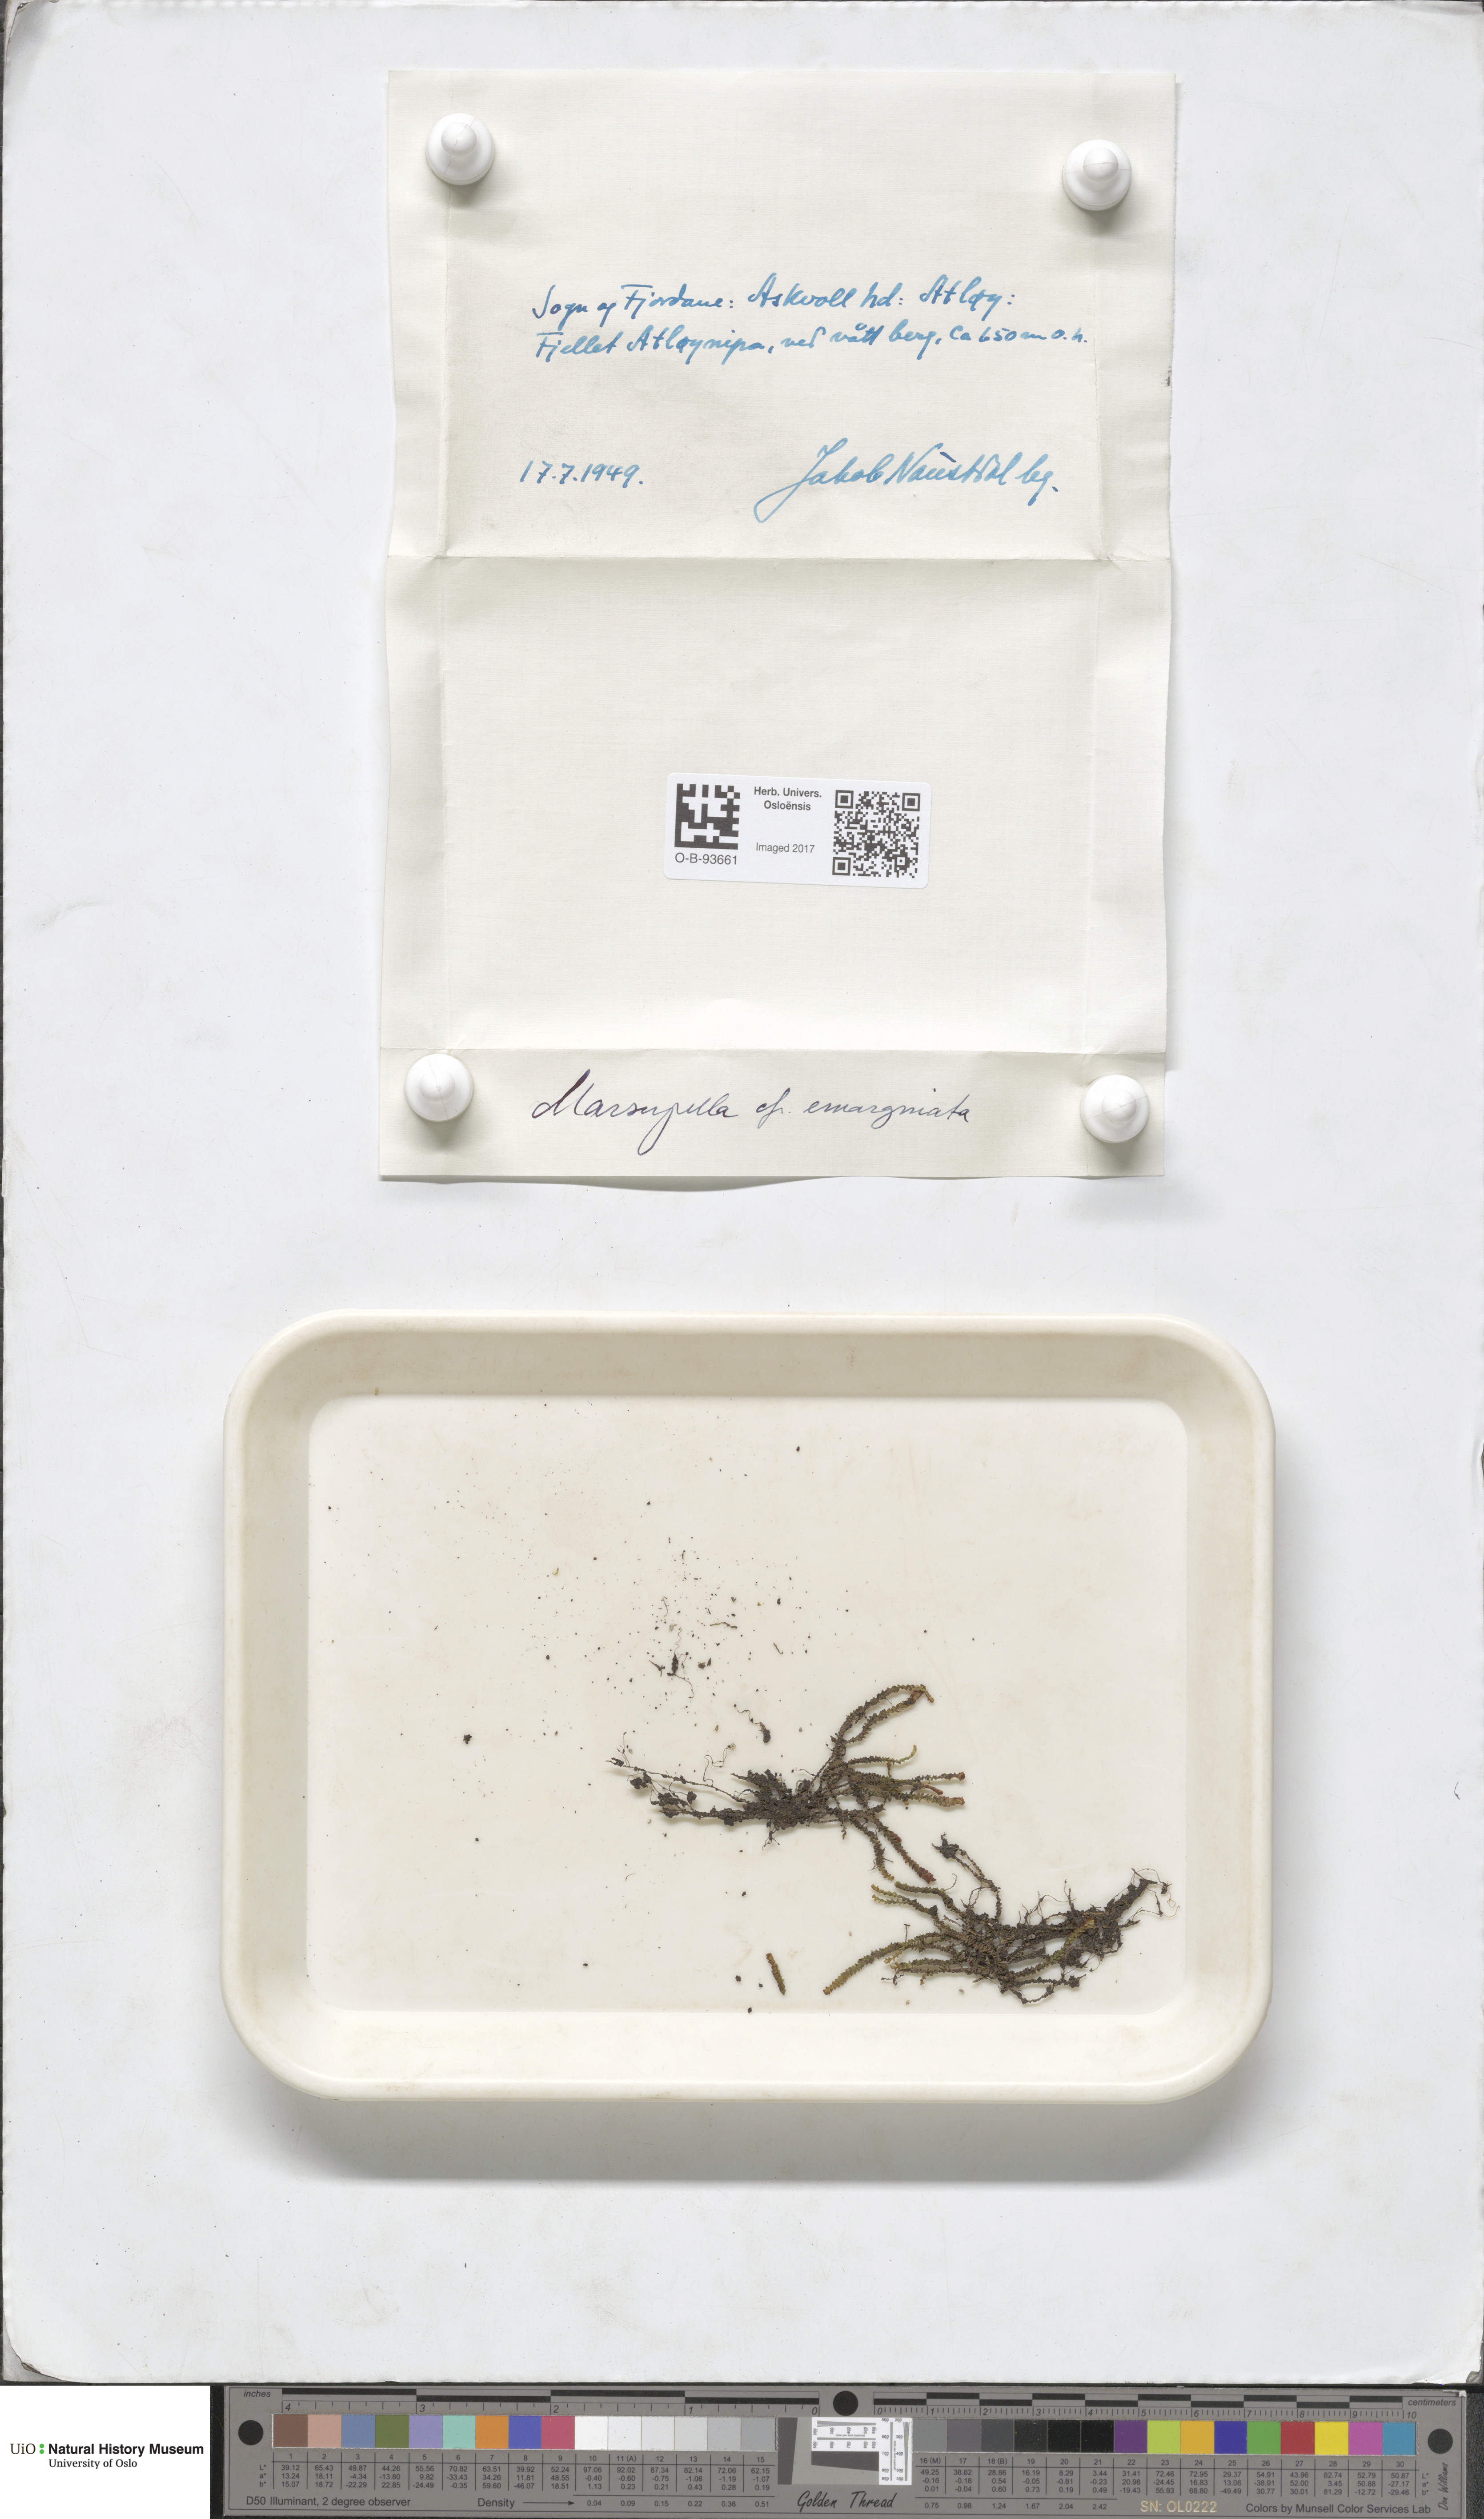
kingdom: Plantae
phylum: Marchantiophyta
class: Jungermanniopsida
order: Jungermanniales
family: Gymnomitriaceae
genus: Marsupella
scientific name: Marsupella emarginata
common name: Notched rustwort
